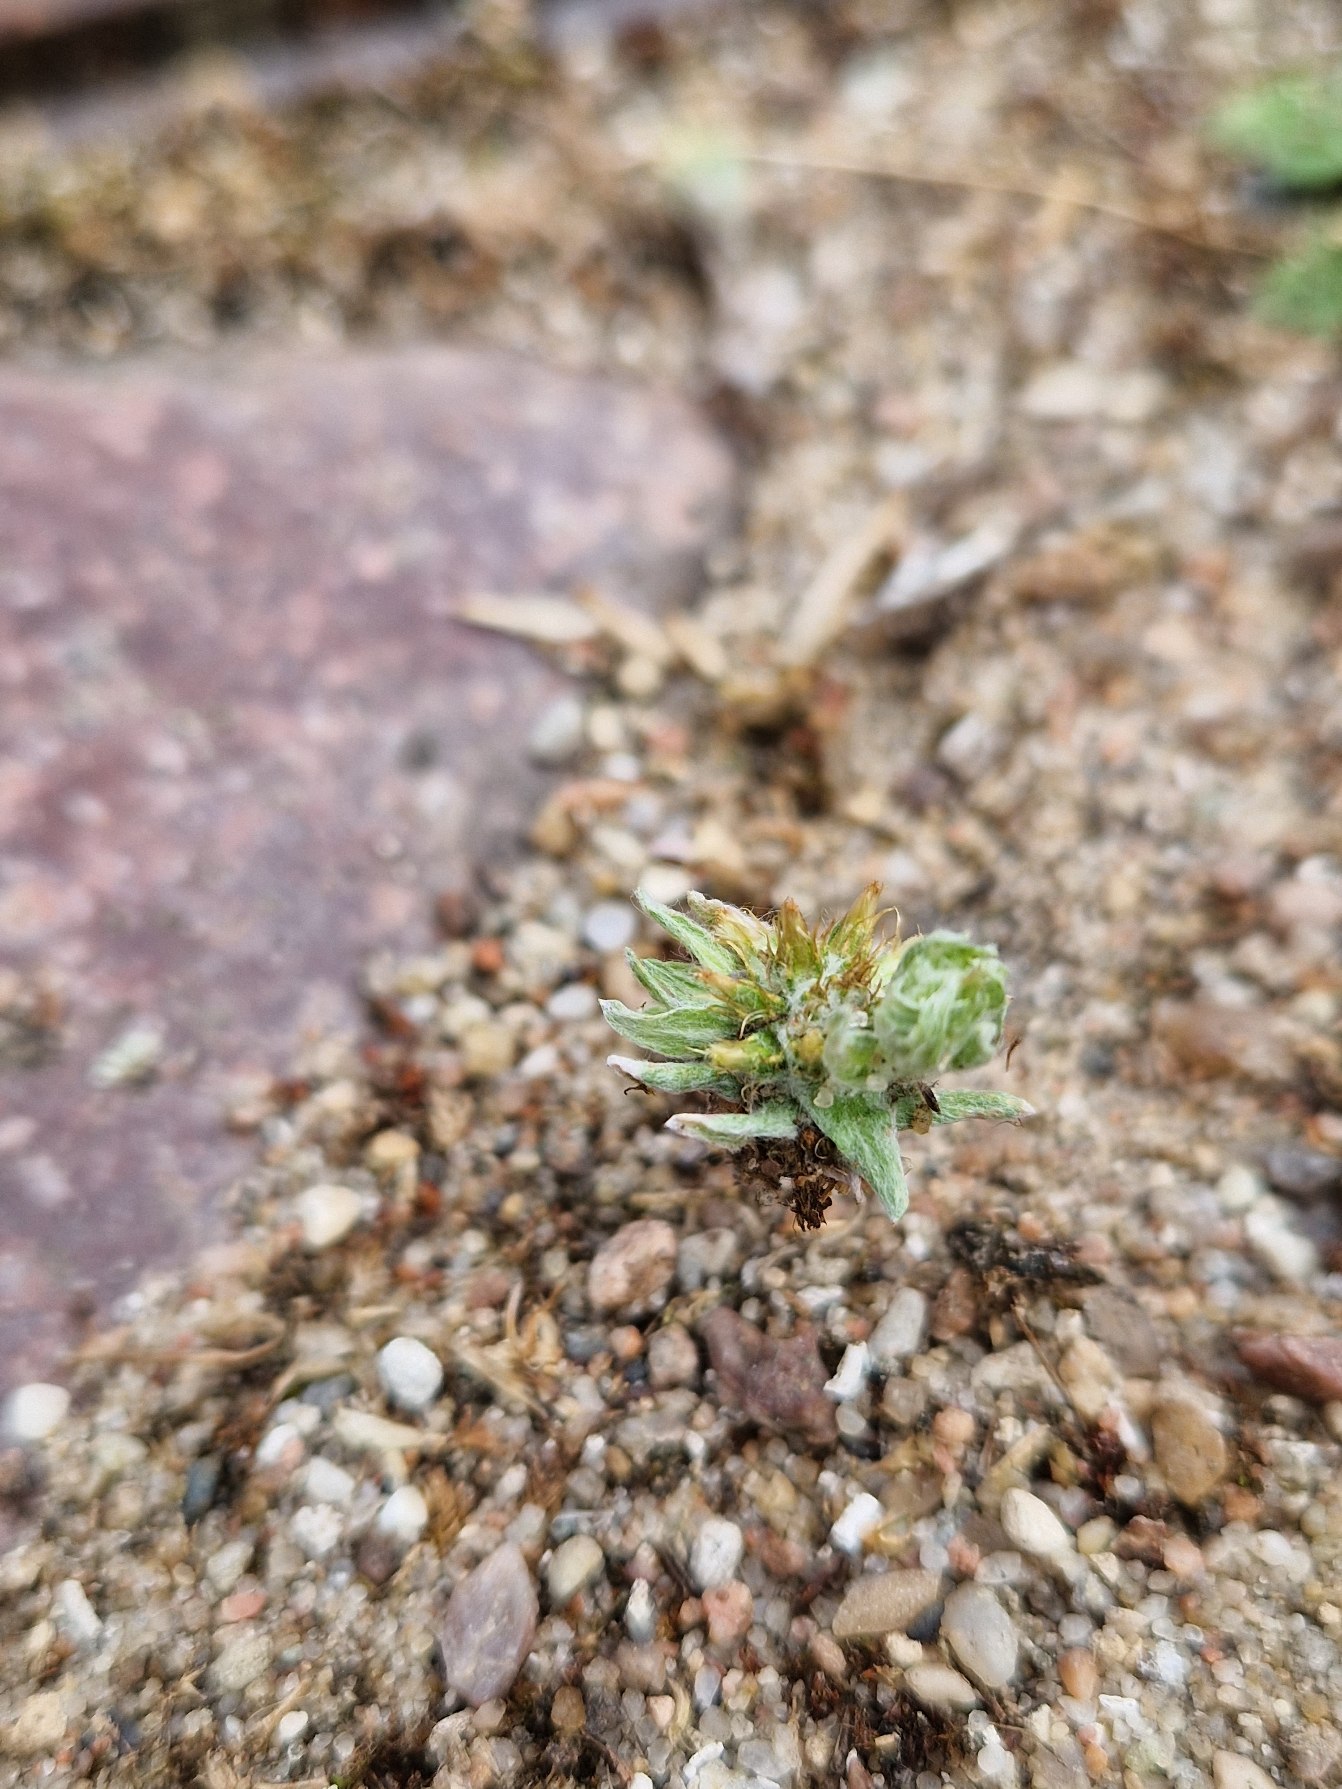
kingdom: Plantae
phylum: Tracheophyta
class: Magnoliopsida
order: Asterales
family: Asteraceae
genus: Filago
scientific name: Filago germanica
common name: Kugle-museurt
